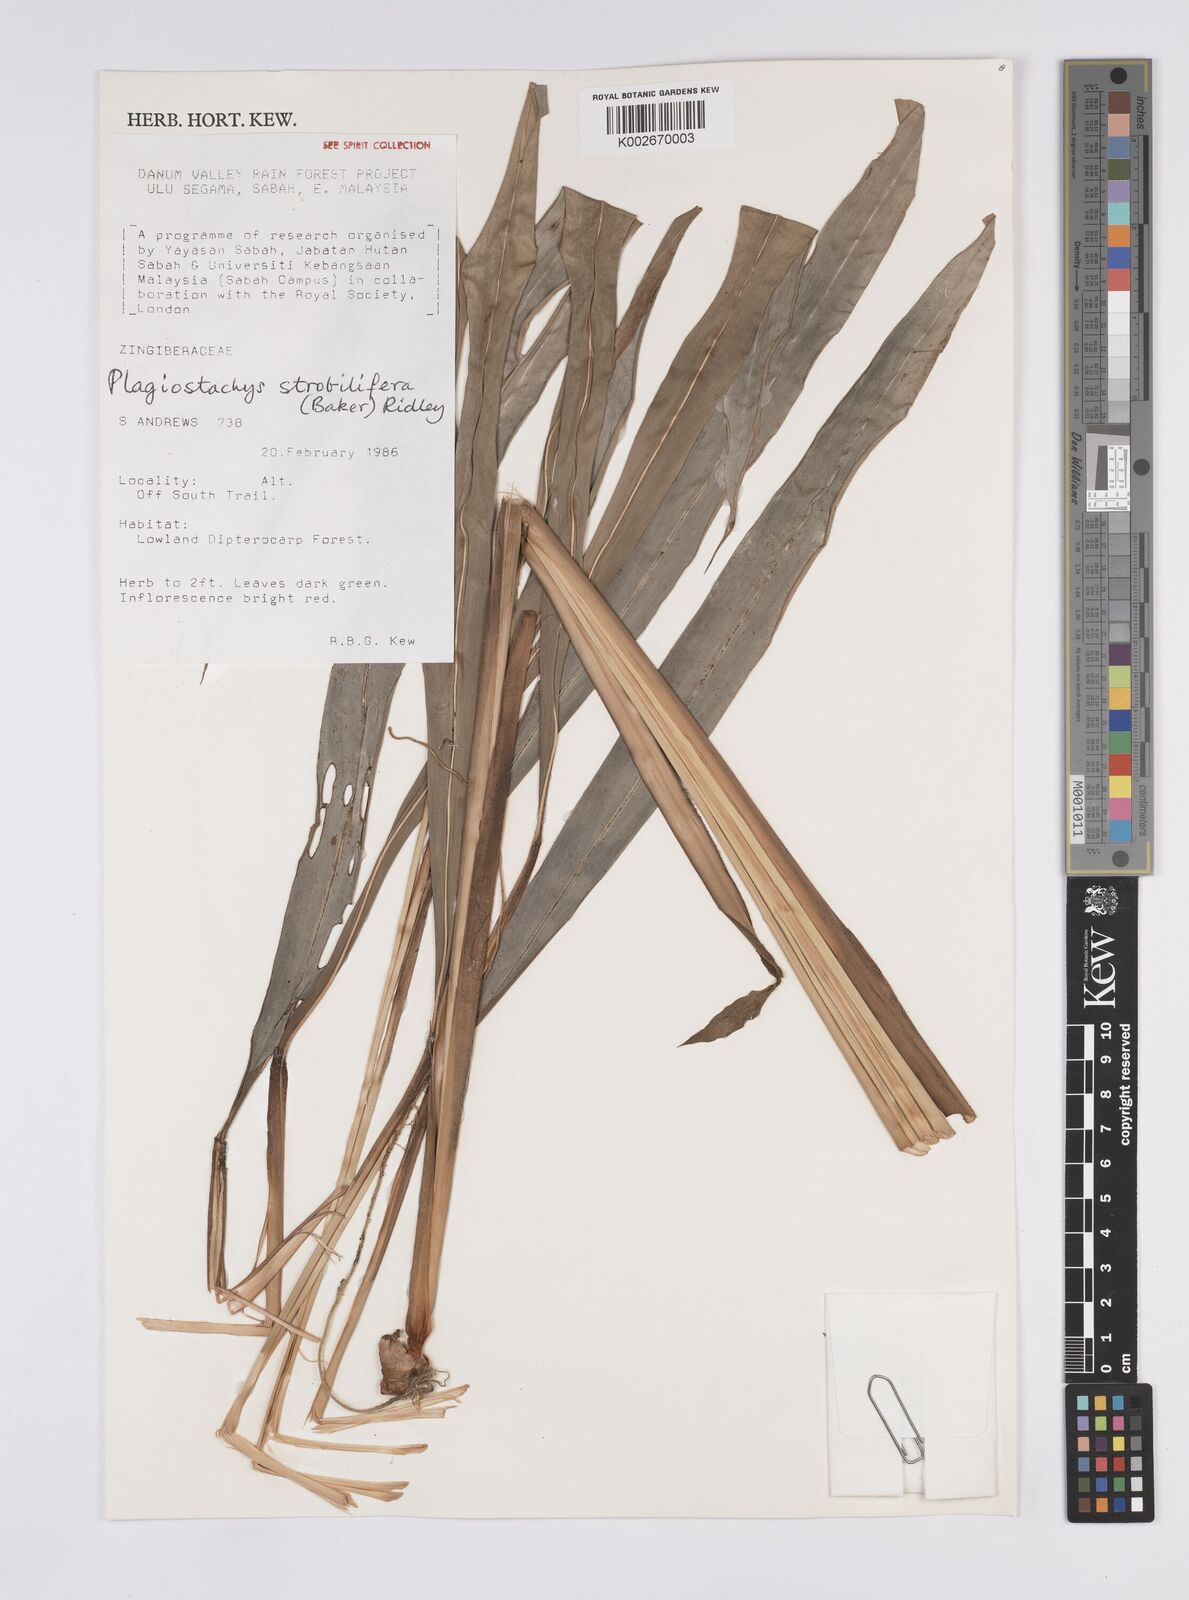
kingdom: Plantae
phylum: Tracheophyta
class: Liliopsida
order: Zingiberales
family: Zingiberaceae
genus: Plagiostachys
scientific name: Plagiostachys strobilifera
